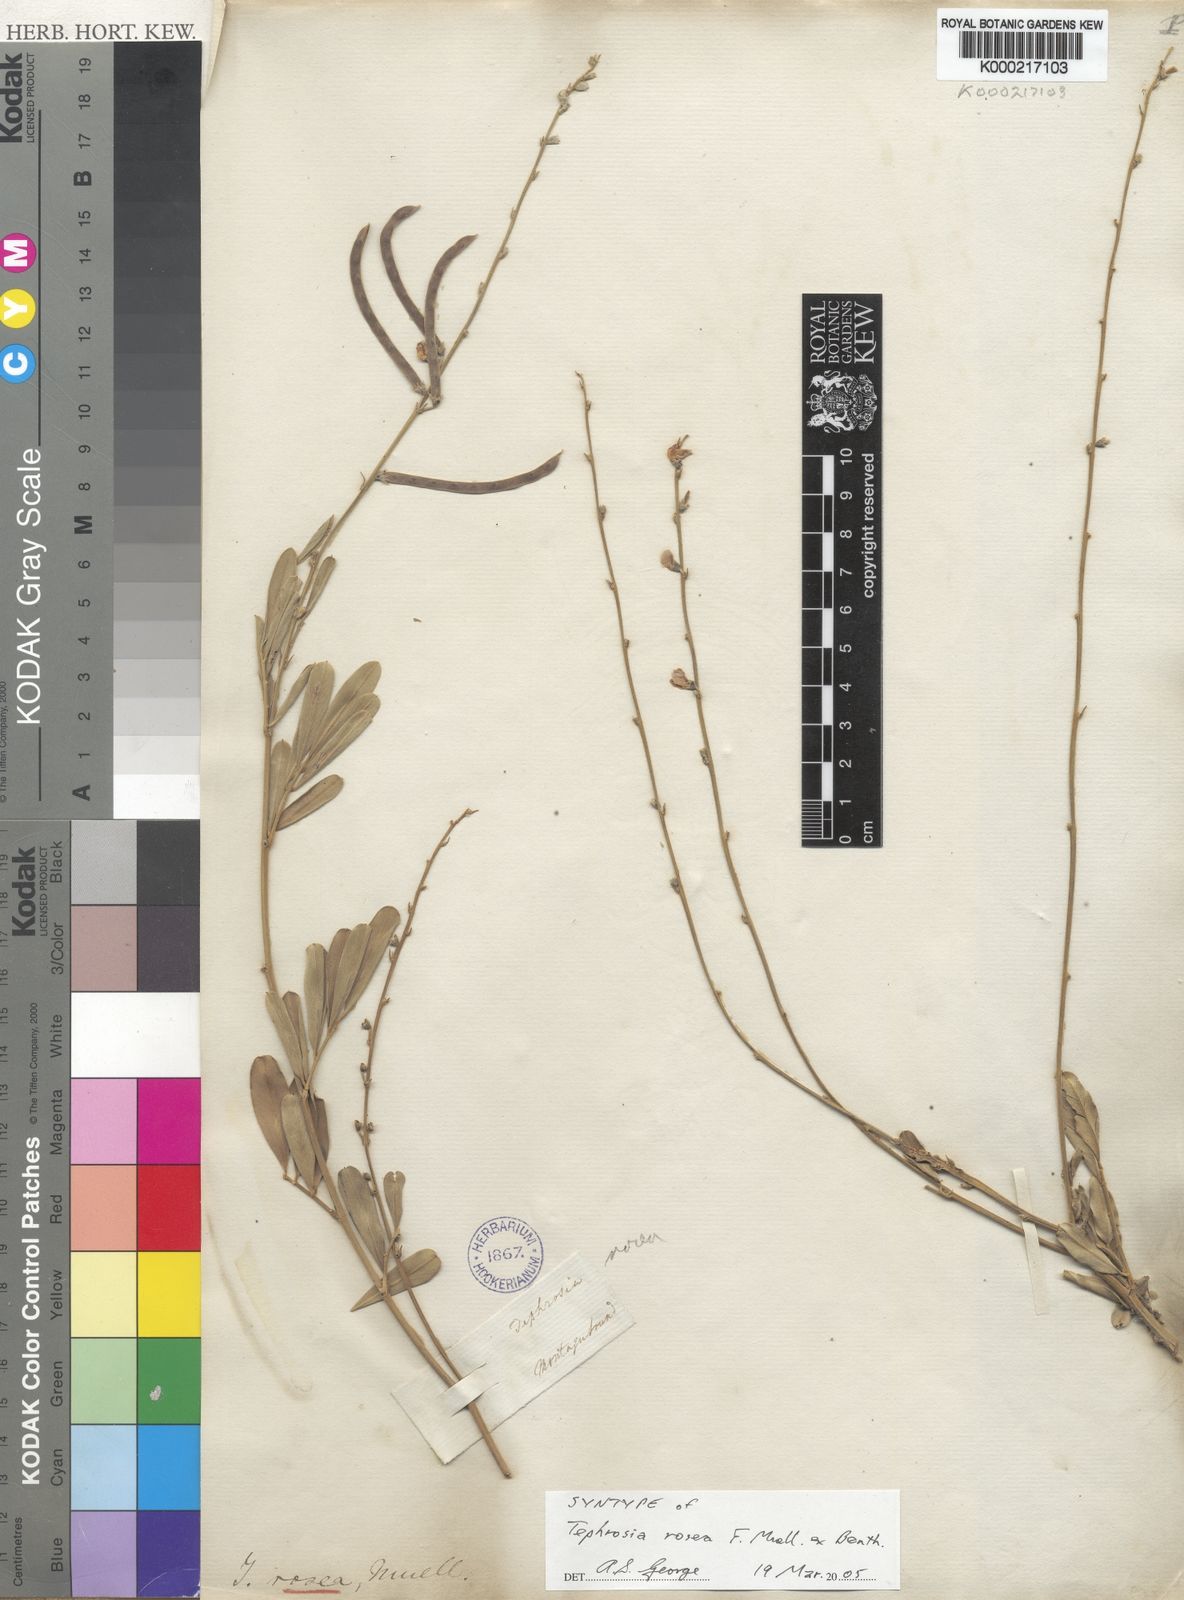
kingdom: Plantae
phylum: Tracheophyta
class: Magnoliopsida
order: Fabales
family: Fabaceae
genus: Tephrosia
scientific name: Tephrosia rosea
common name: Flinders river-poison
